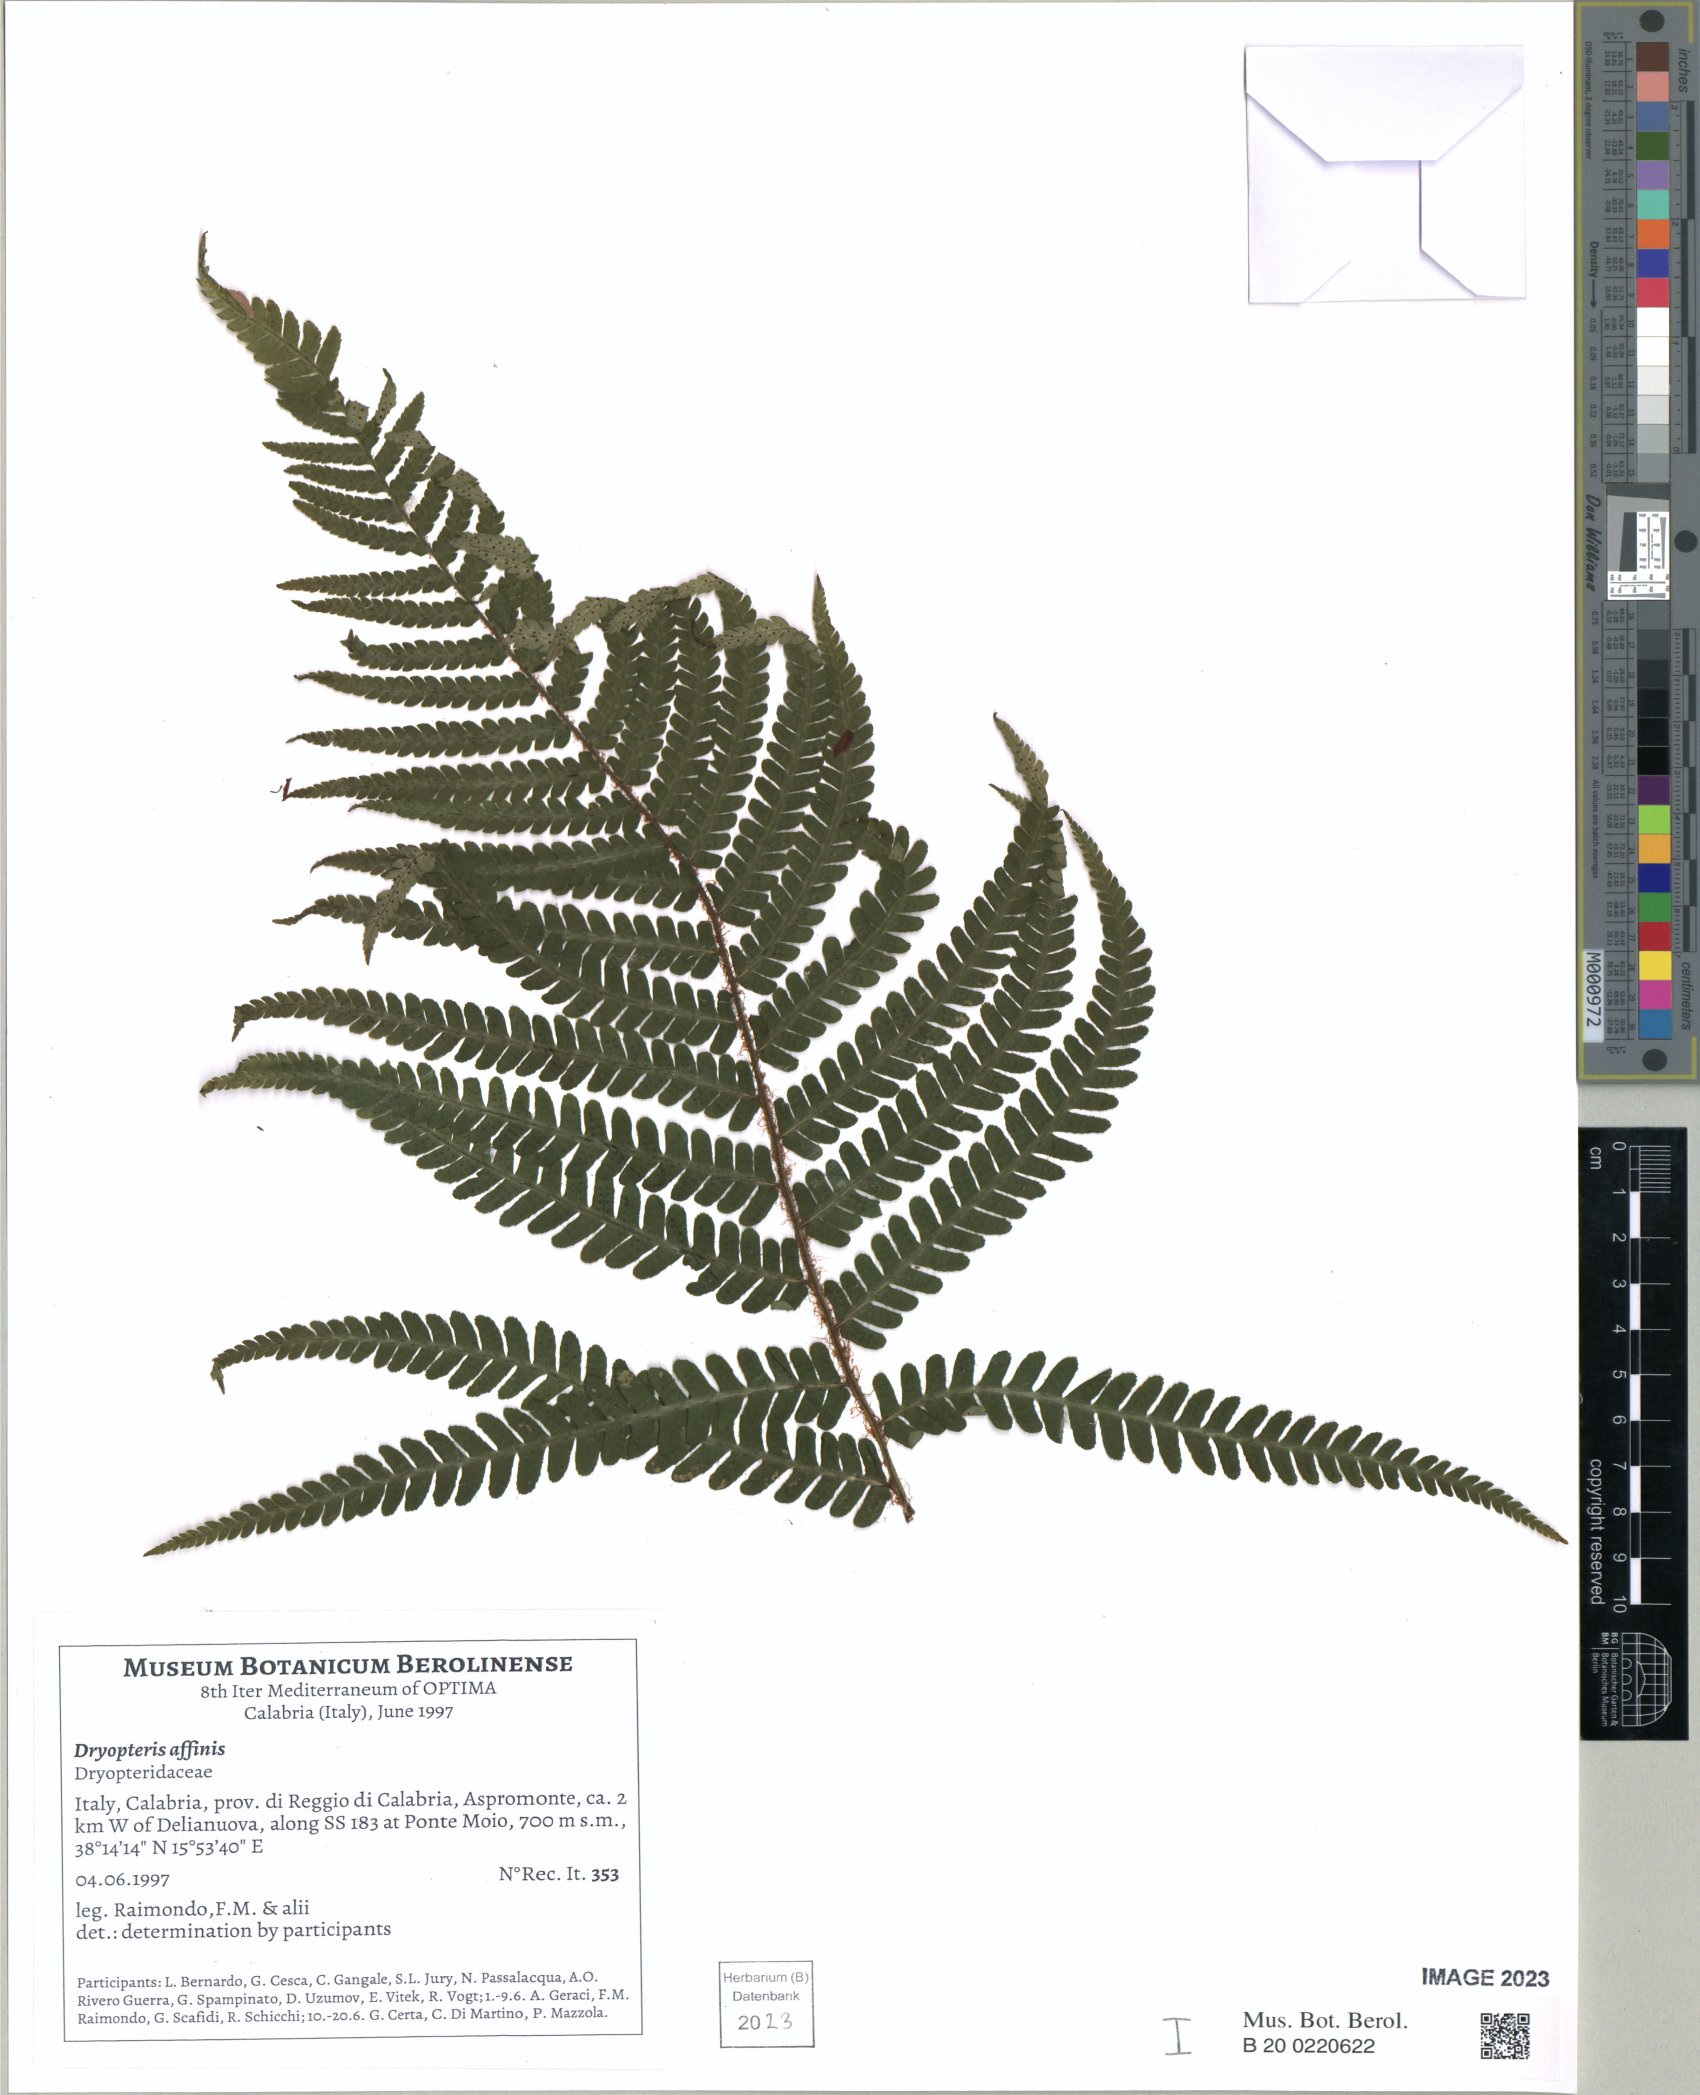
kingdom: Plantae
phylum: Tracheophyta
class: Polypodiopsida
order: Polypodiales
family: Dryopteridaceae
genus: Dryopteris
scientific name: Dryopteris affinis
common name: Scaly male fern
